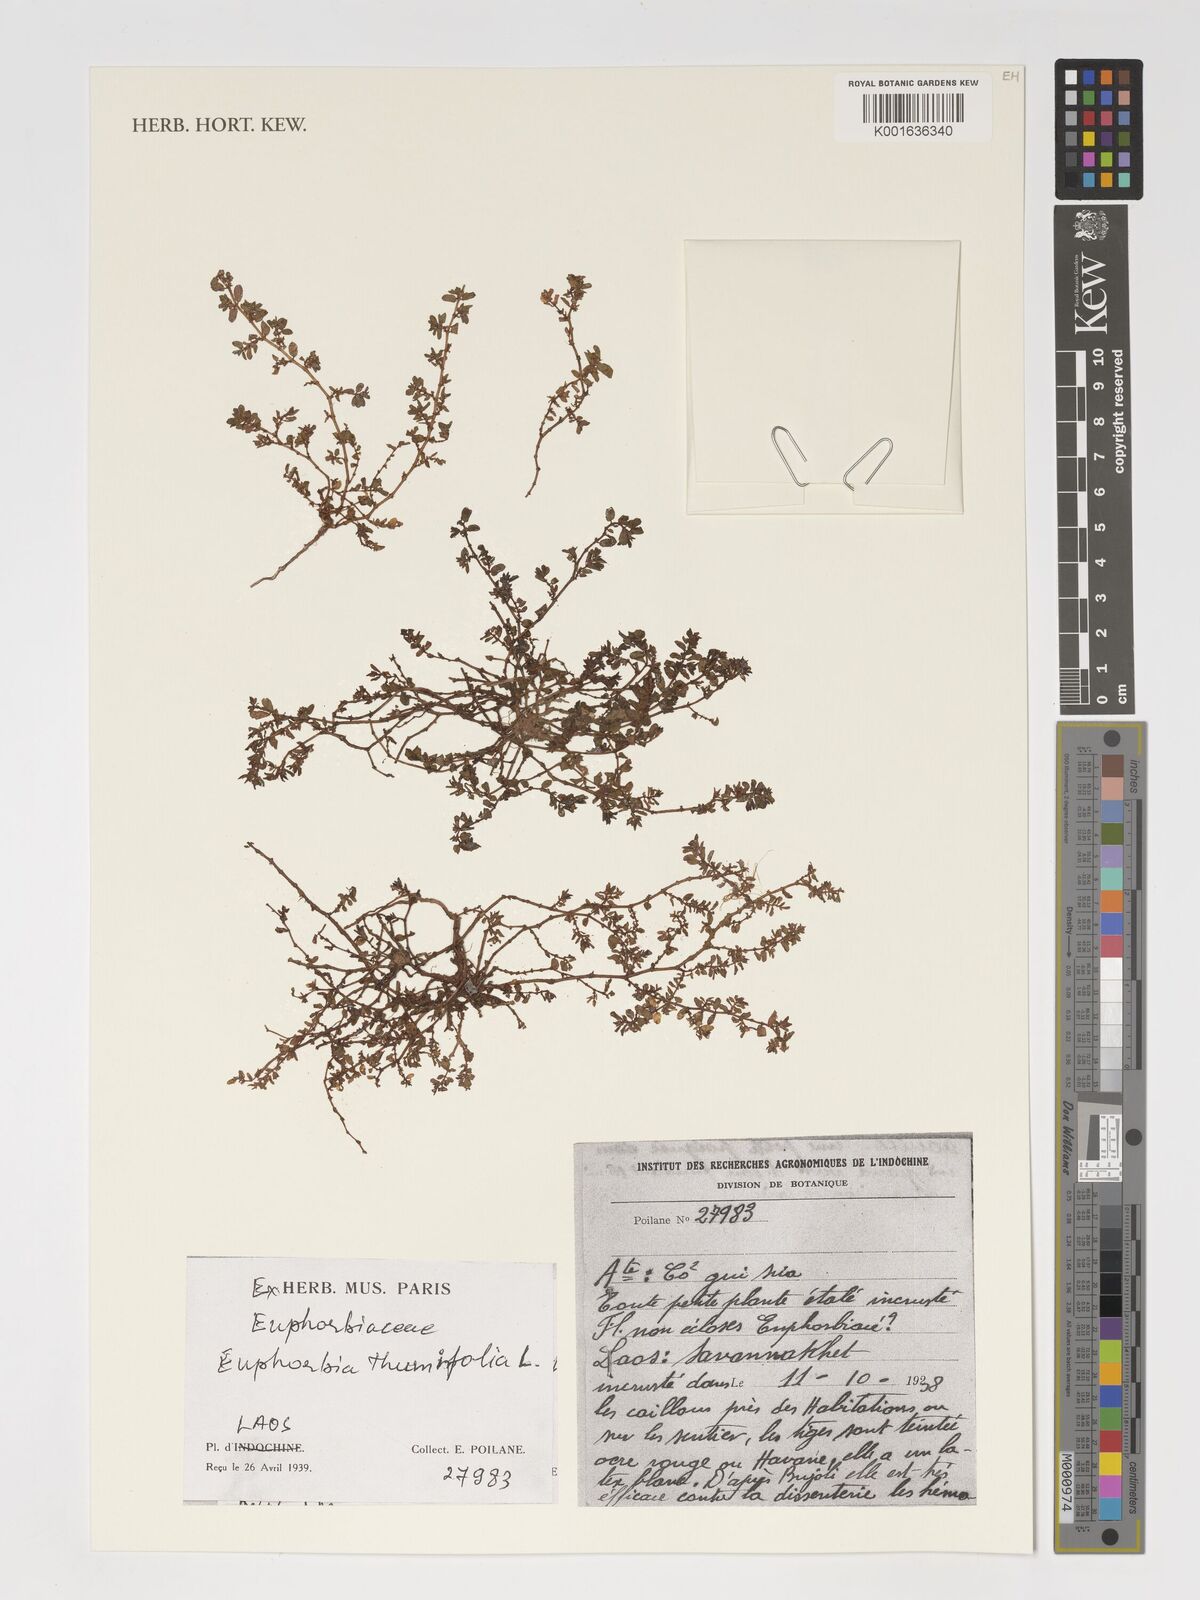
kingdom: Plantae
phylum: Tracheophyta
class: Magnoliopsida
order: Malpighiales
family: Euphorbiaceae
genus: Euphorbia
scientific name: Euphorbia thymifolia
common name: Gulf sandmat
